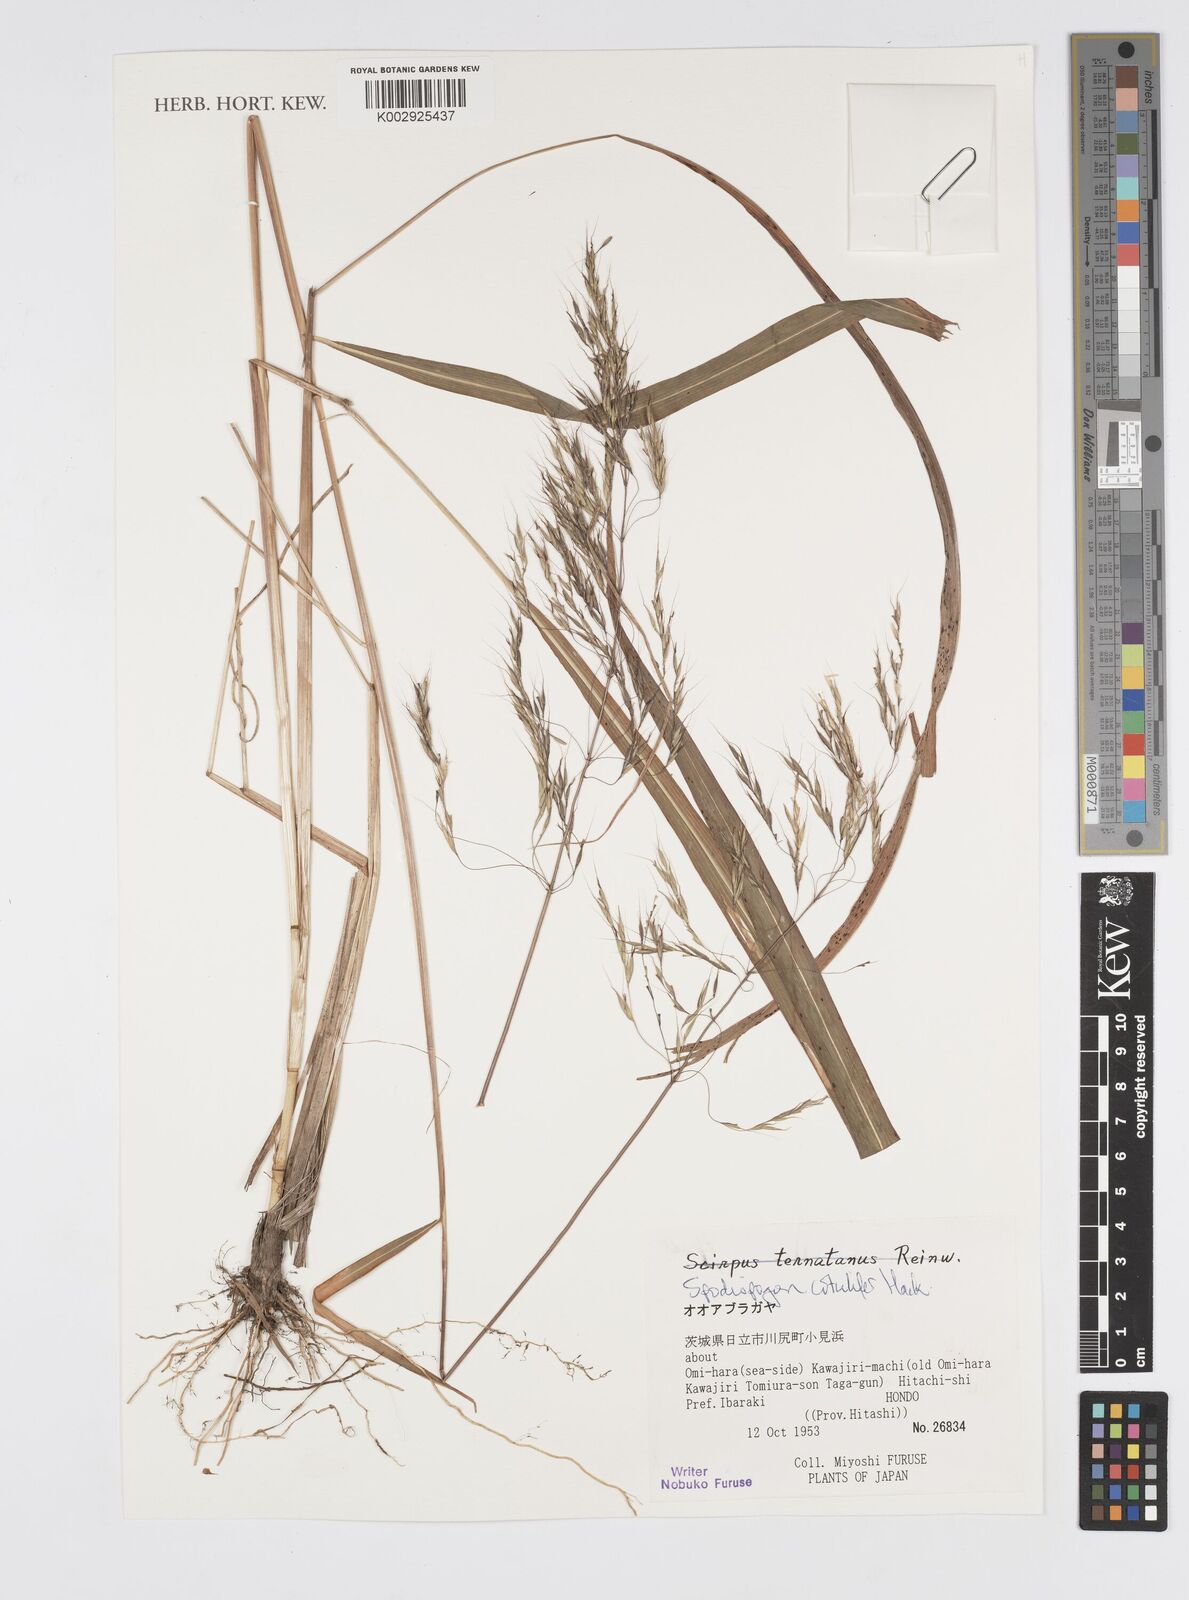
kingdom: Plantae
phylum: Tracheophyta
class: Liliopsida
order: Poales
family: Poaceae
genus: Spodiopogon
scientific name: Spodiopogon cotulifer
